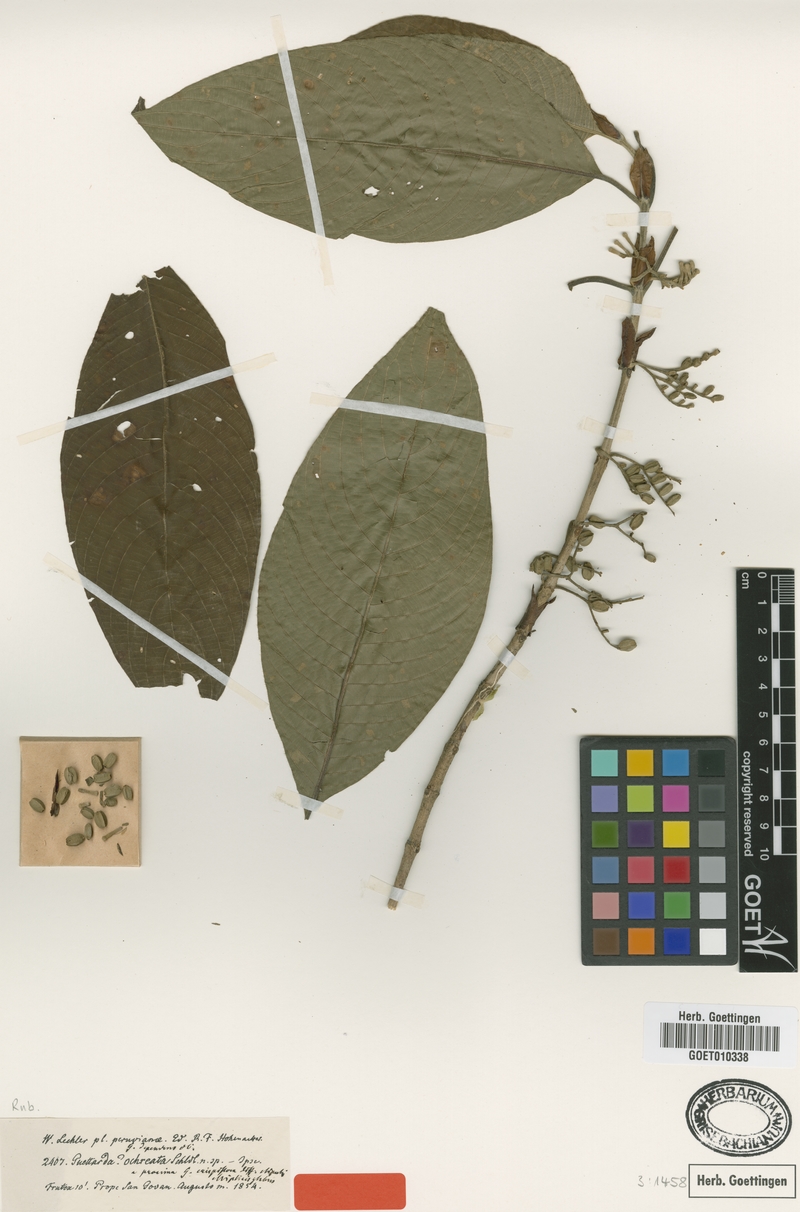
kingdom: Plantae
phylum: Tracheophyta
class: Magnoliopsida
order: Gentianales
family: Rubiaceae
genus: Tournefortiopsis
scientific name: Tournefortiopsis crispiflora
